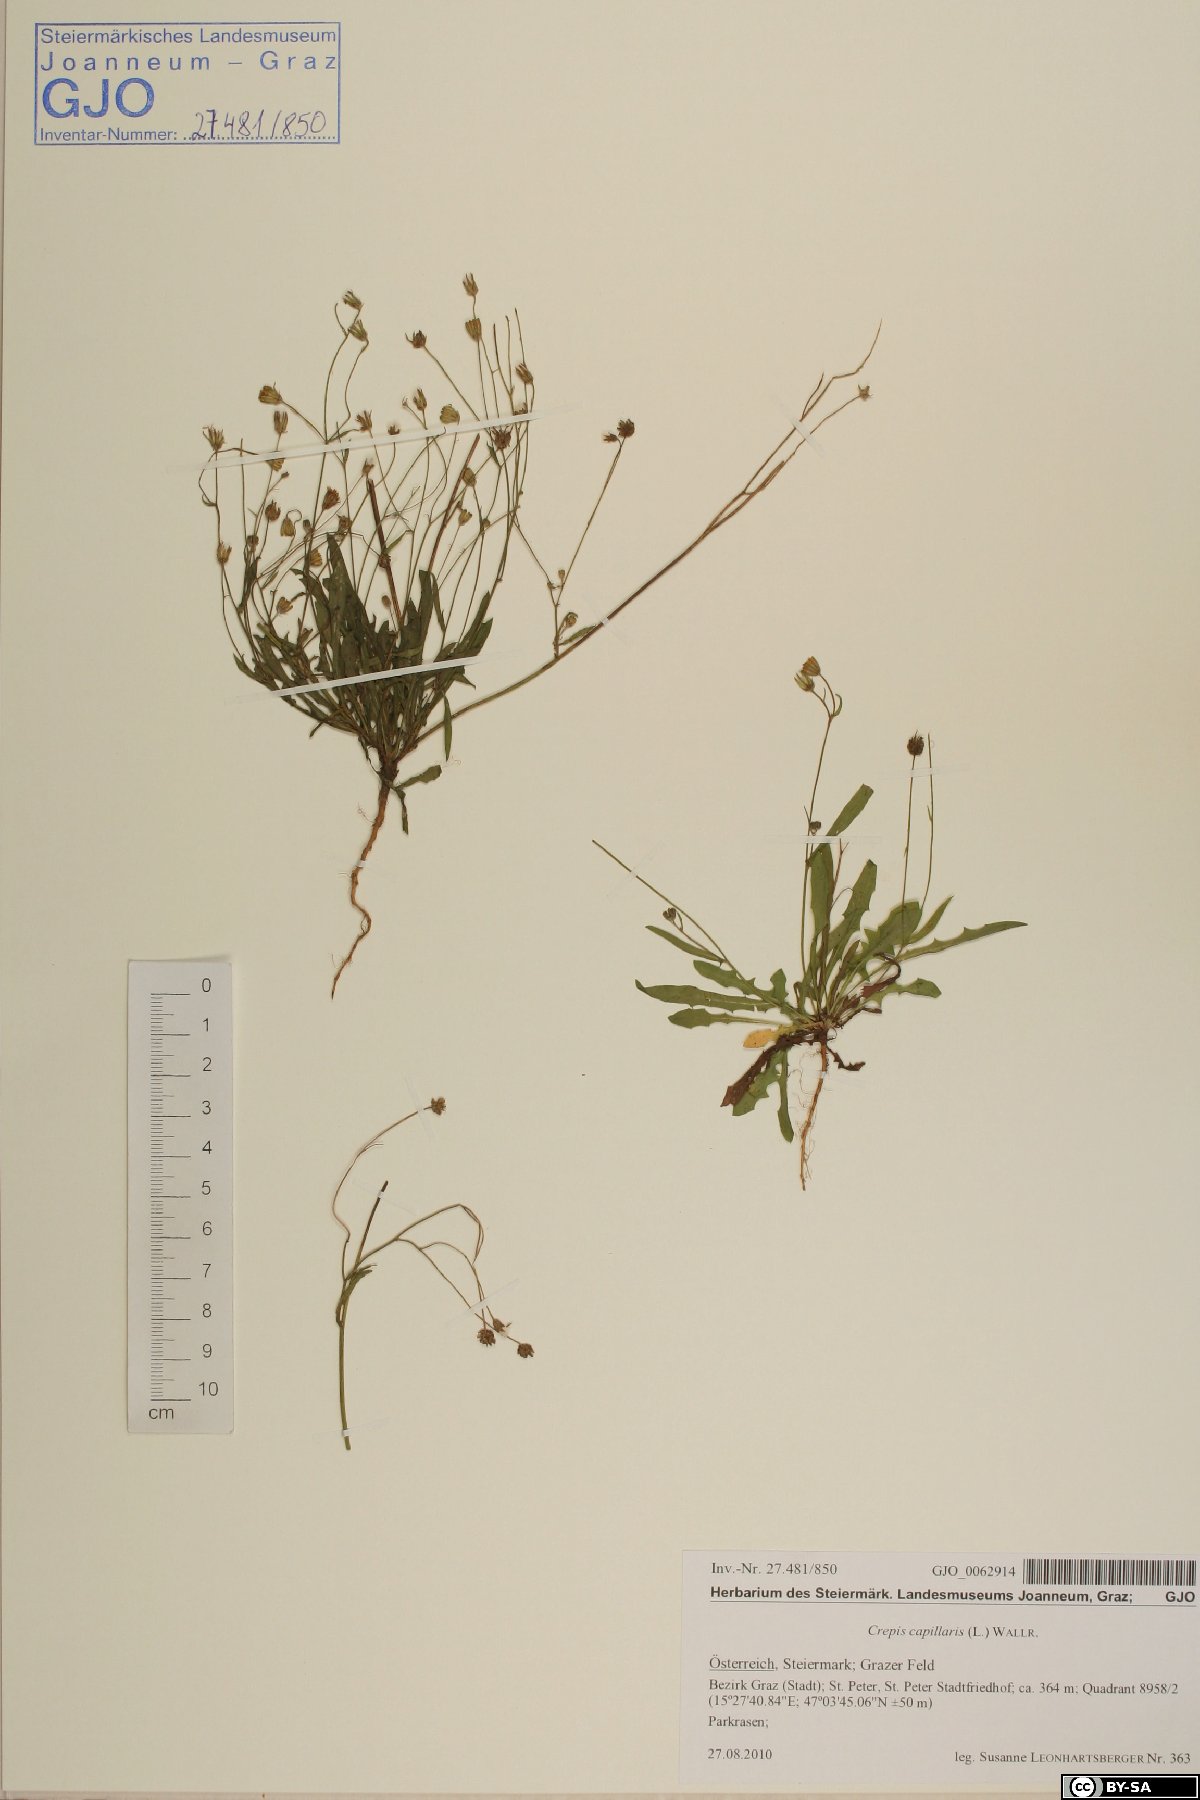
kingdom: Plantae
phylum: Tracheophyta
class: Magnoliopsida
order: Asterales
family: Asteraceae
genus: Crepis
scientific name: Crepis capillaris
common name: Smooth hawksbeard
